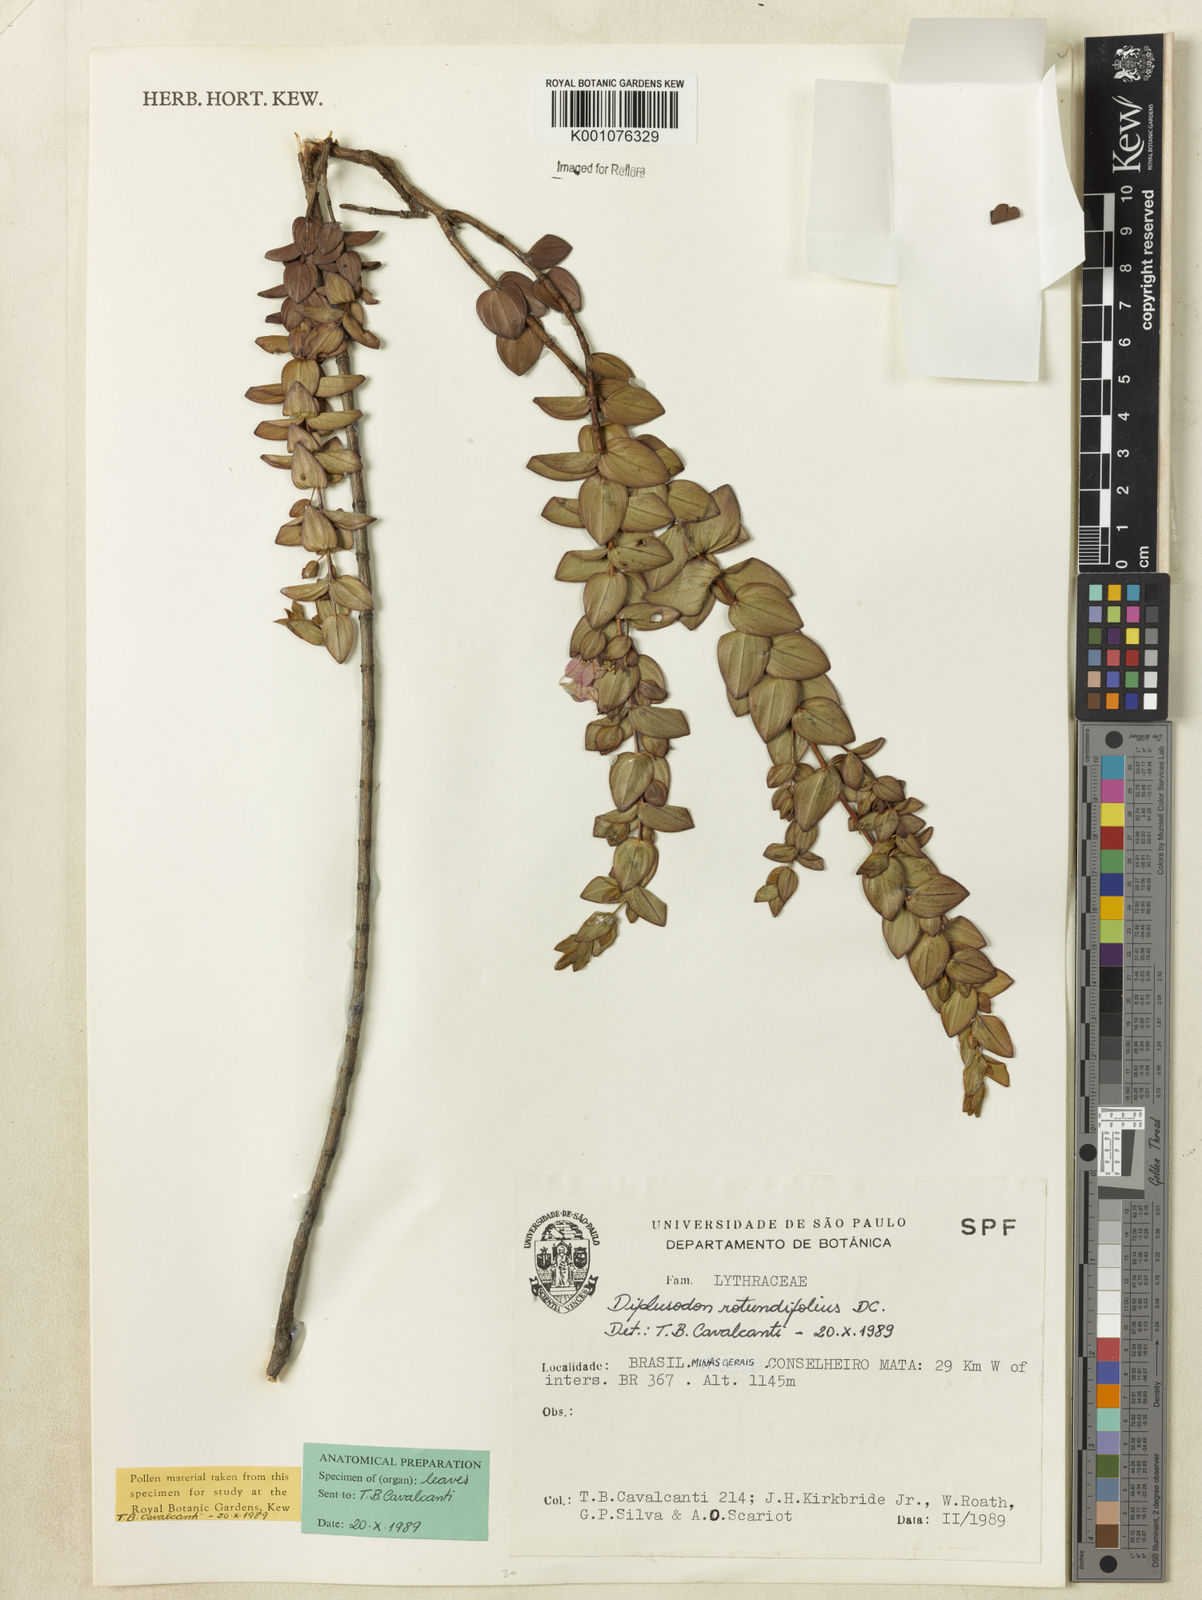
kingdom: Plantae
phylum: Tracheophyta
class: Magnoliopsida
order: Myrtales
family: Lythraceae
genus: Diplusodon
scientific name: Diplusodon rotundifolius
